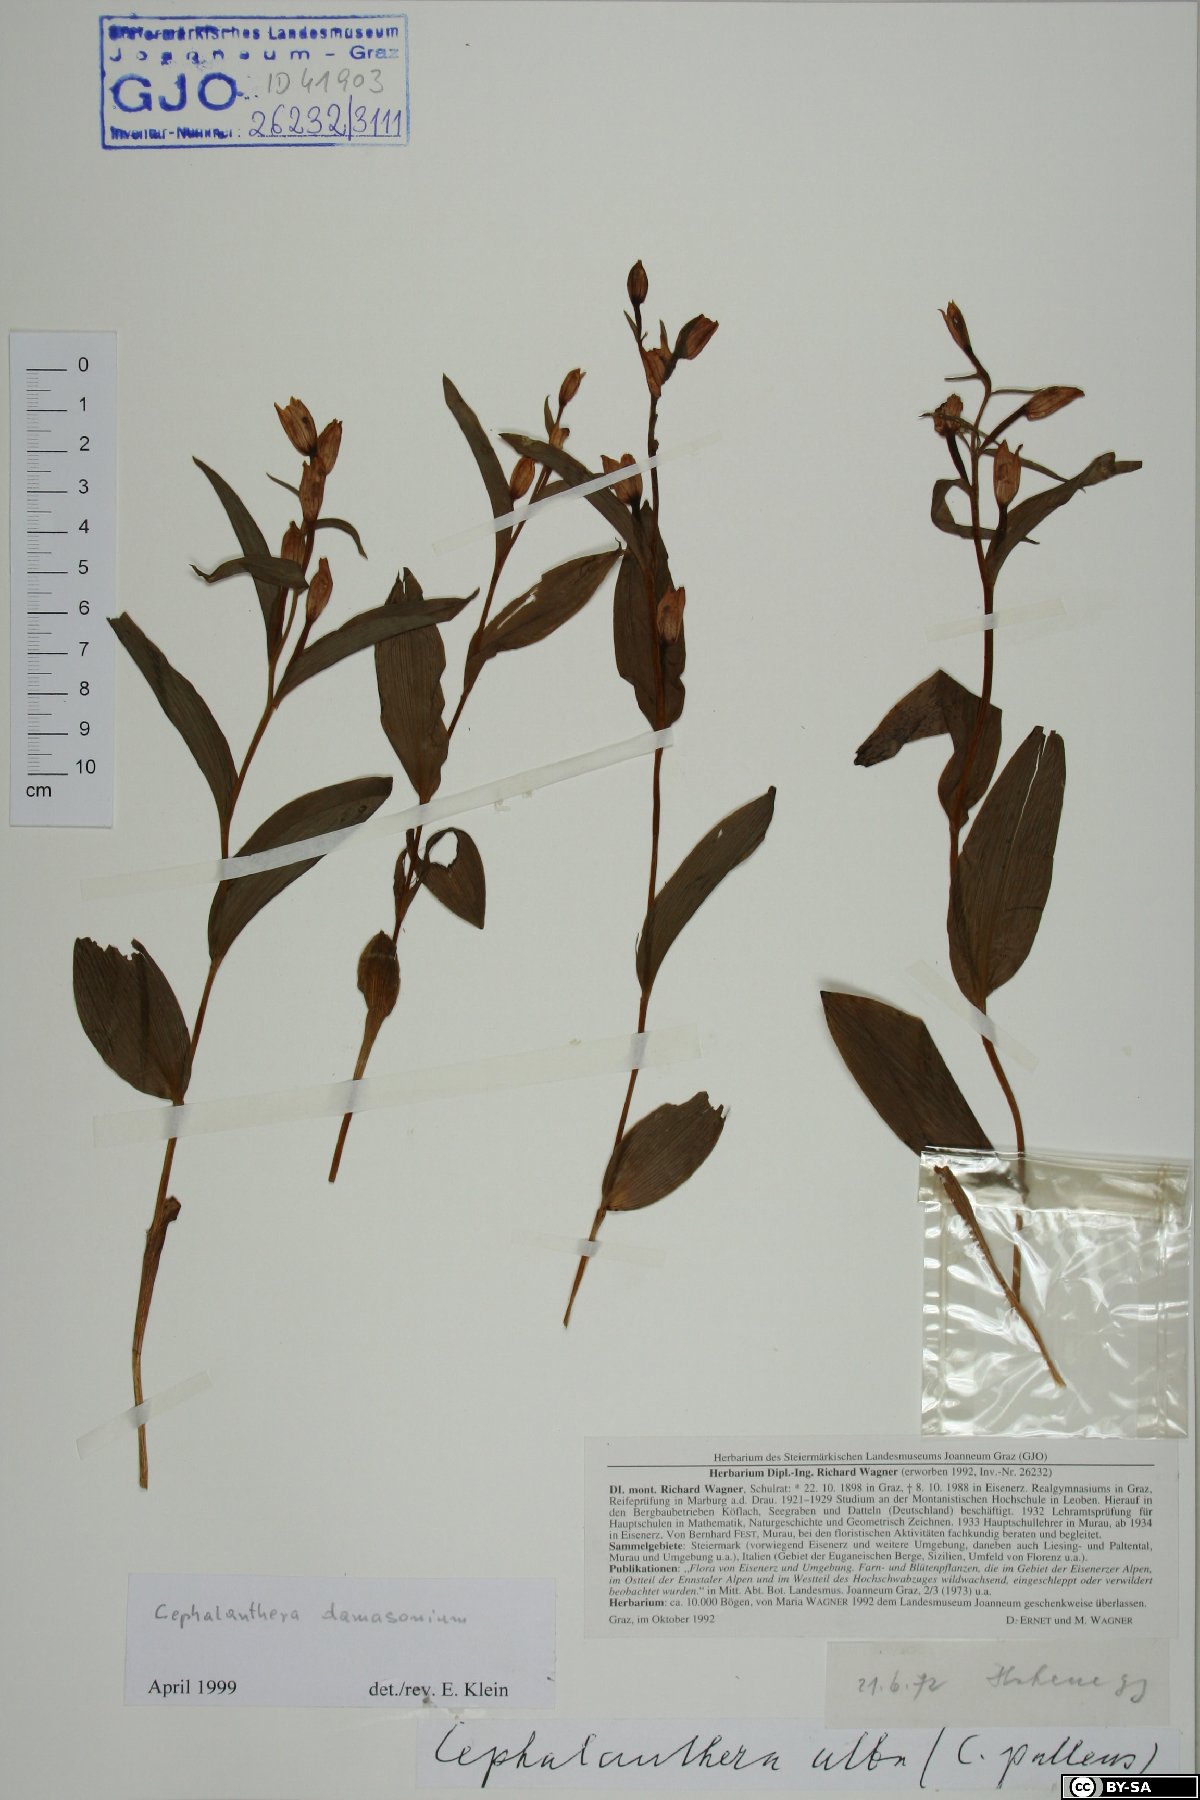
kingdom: Plantae
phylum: Tracheophyta
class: Liliopsida
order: Asparagales
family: Orchidaceae
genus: Cephalanthera
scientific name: Cephalanthera damasonium
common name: White helleborine
